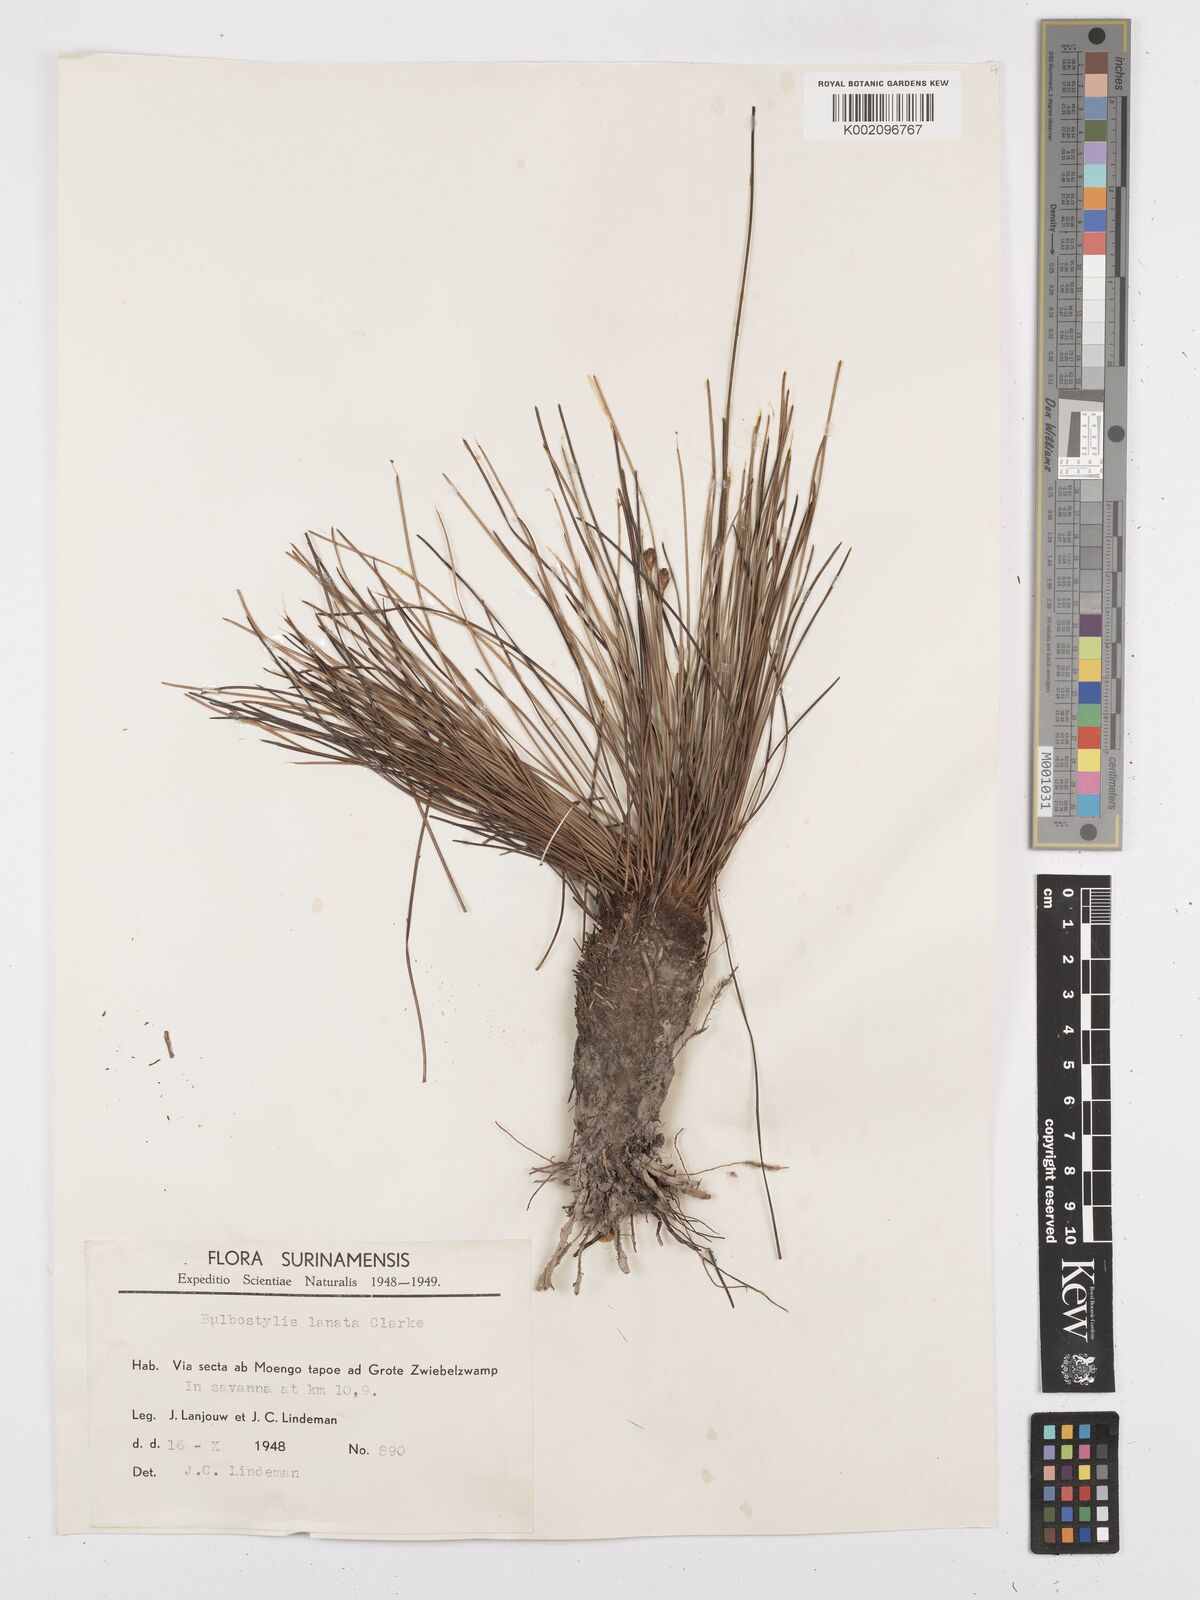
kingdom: Plantae
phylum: Tracheophyta
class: Liliopsida
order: Poales
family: Cyperaceae
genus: Bulbostylis
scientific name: Bulbostylis
